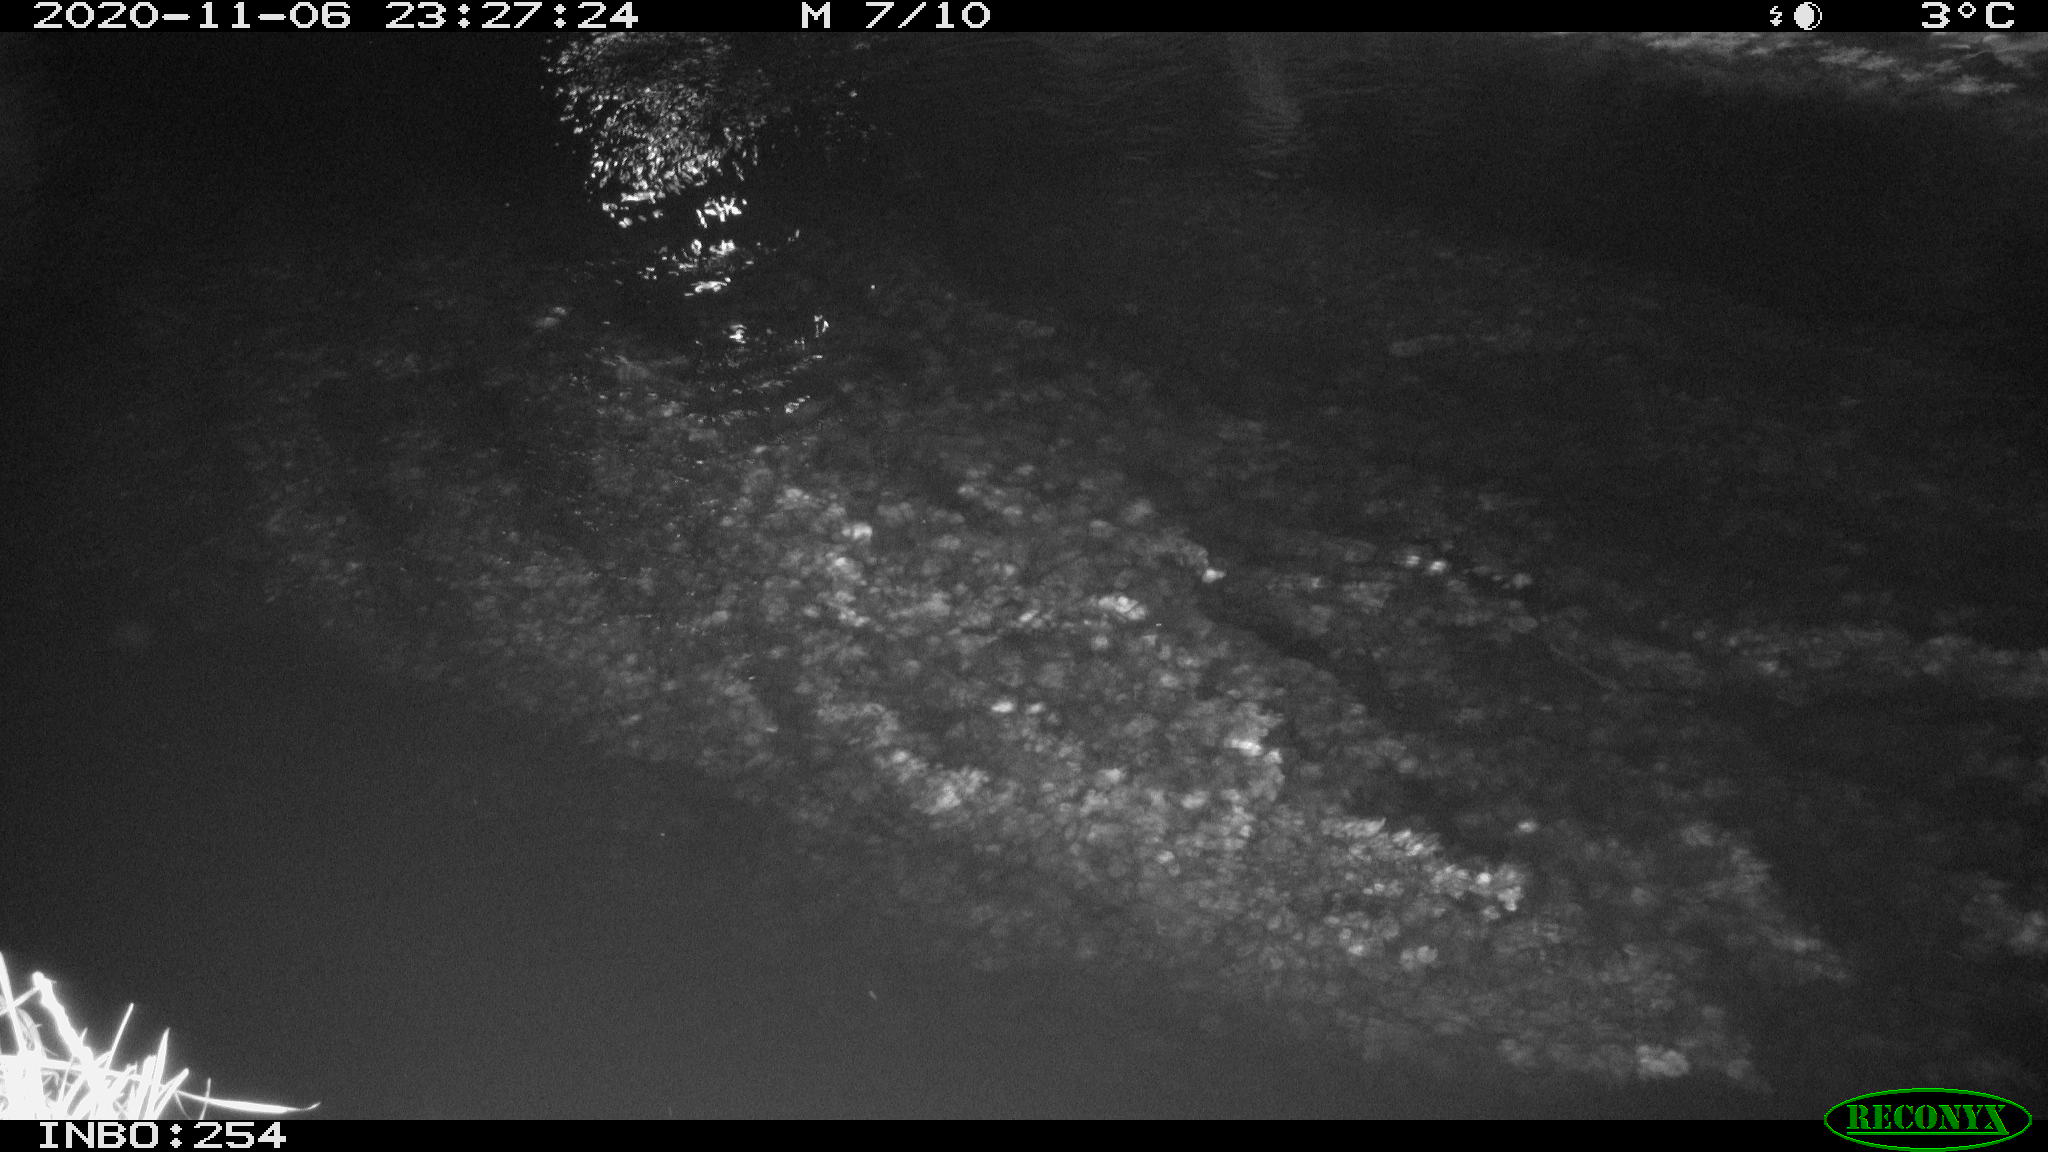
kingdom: Animalia
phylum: Chordata
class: Aves
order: Anseriformes
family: Anatidae
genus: Anas
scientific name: Anas platyrhynchos
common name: Mallard
